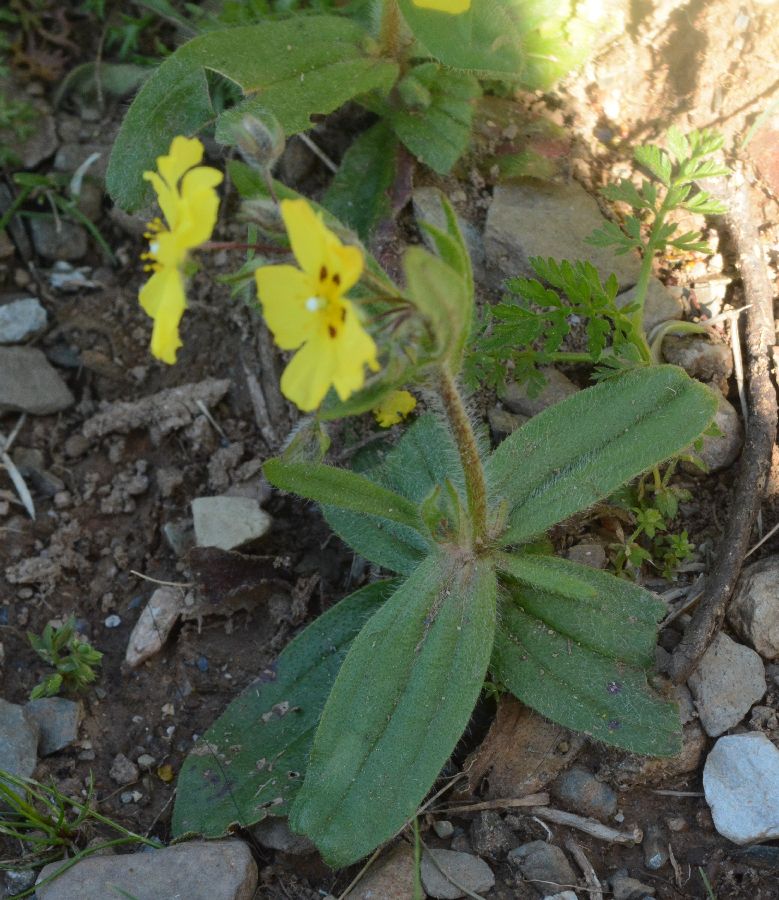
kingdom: Plantae
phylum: Tracheophyta
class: Magnoliopsida
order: Malvales
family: Cistaceae
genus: Tuberaria
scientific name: Tuberaria guttata
